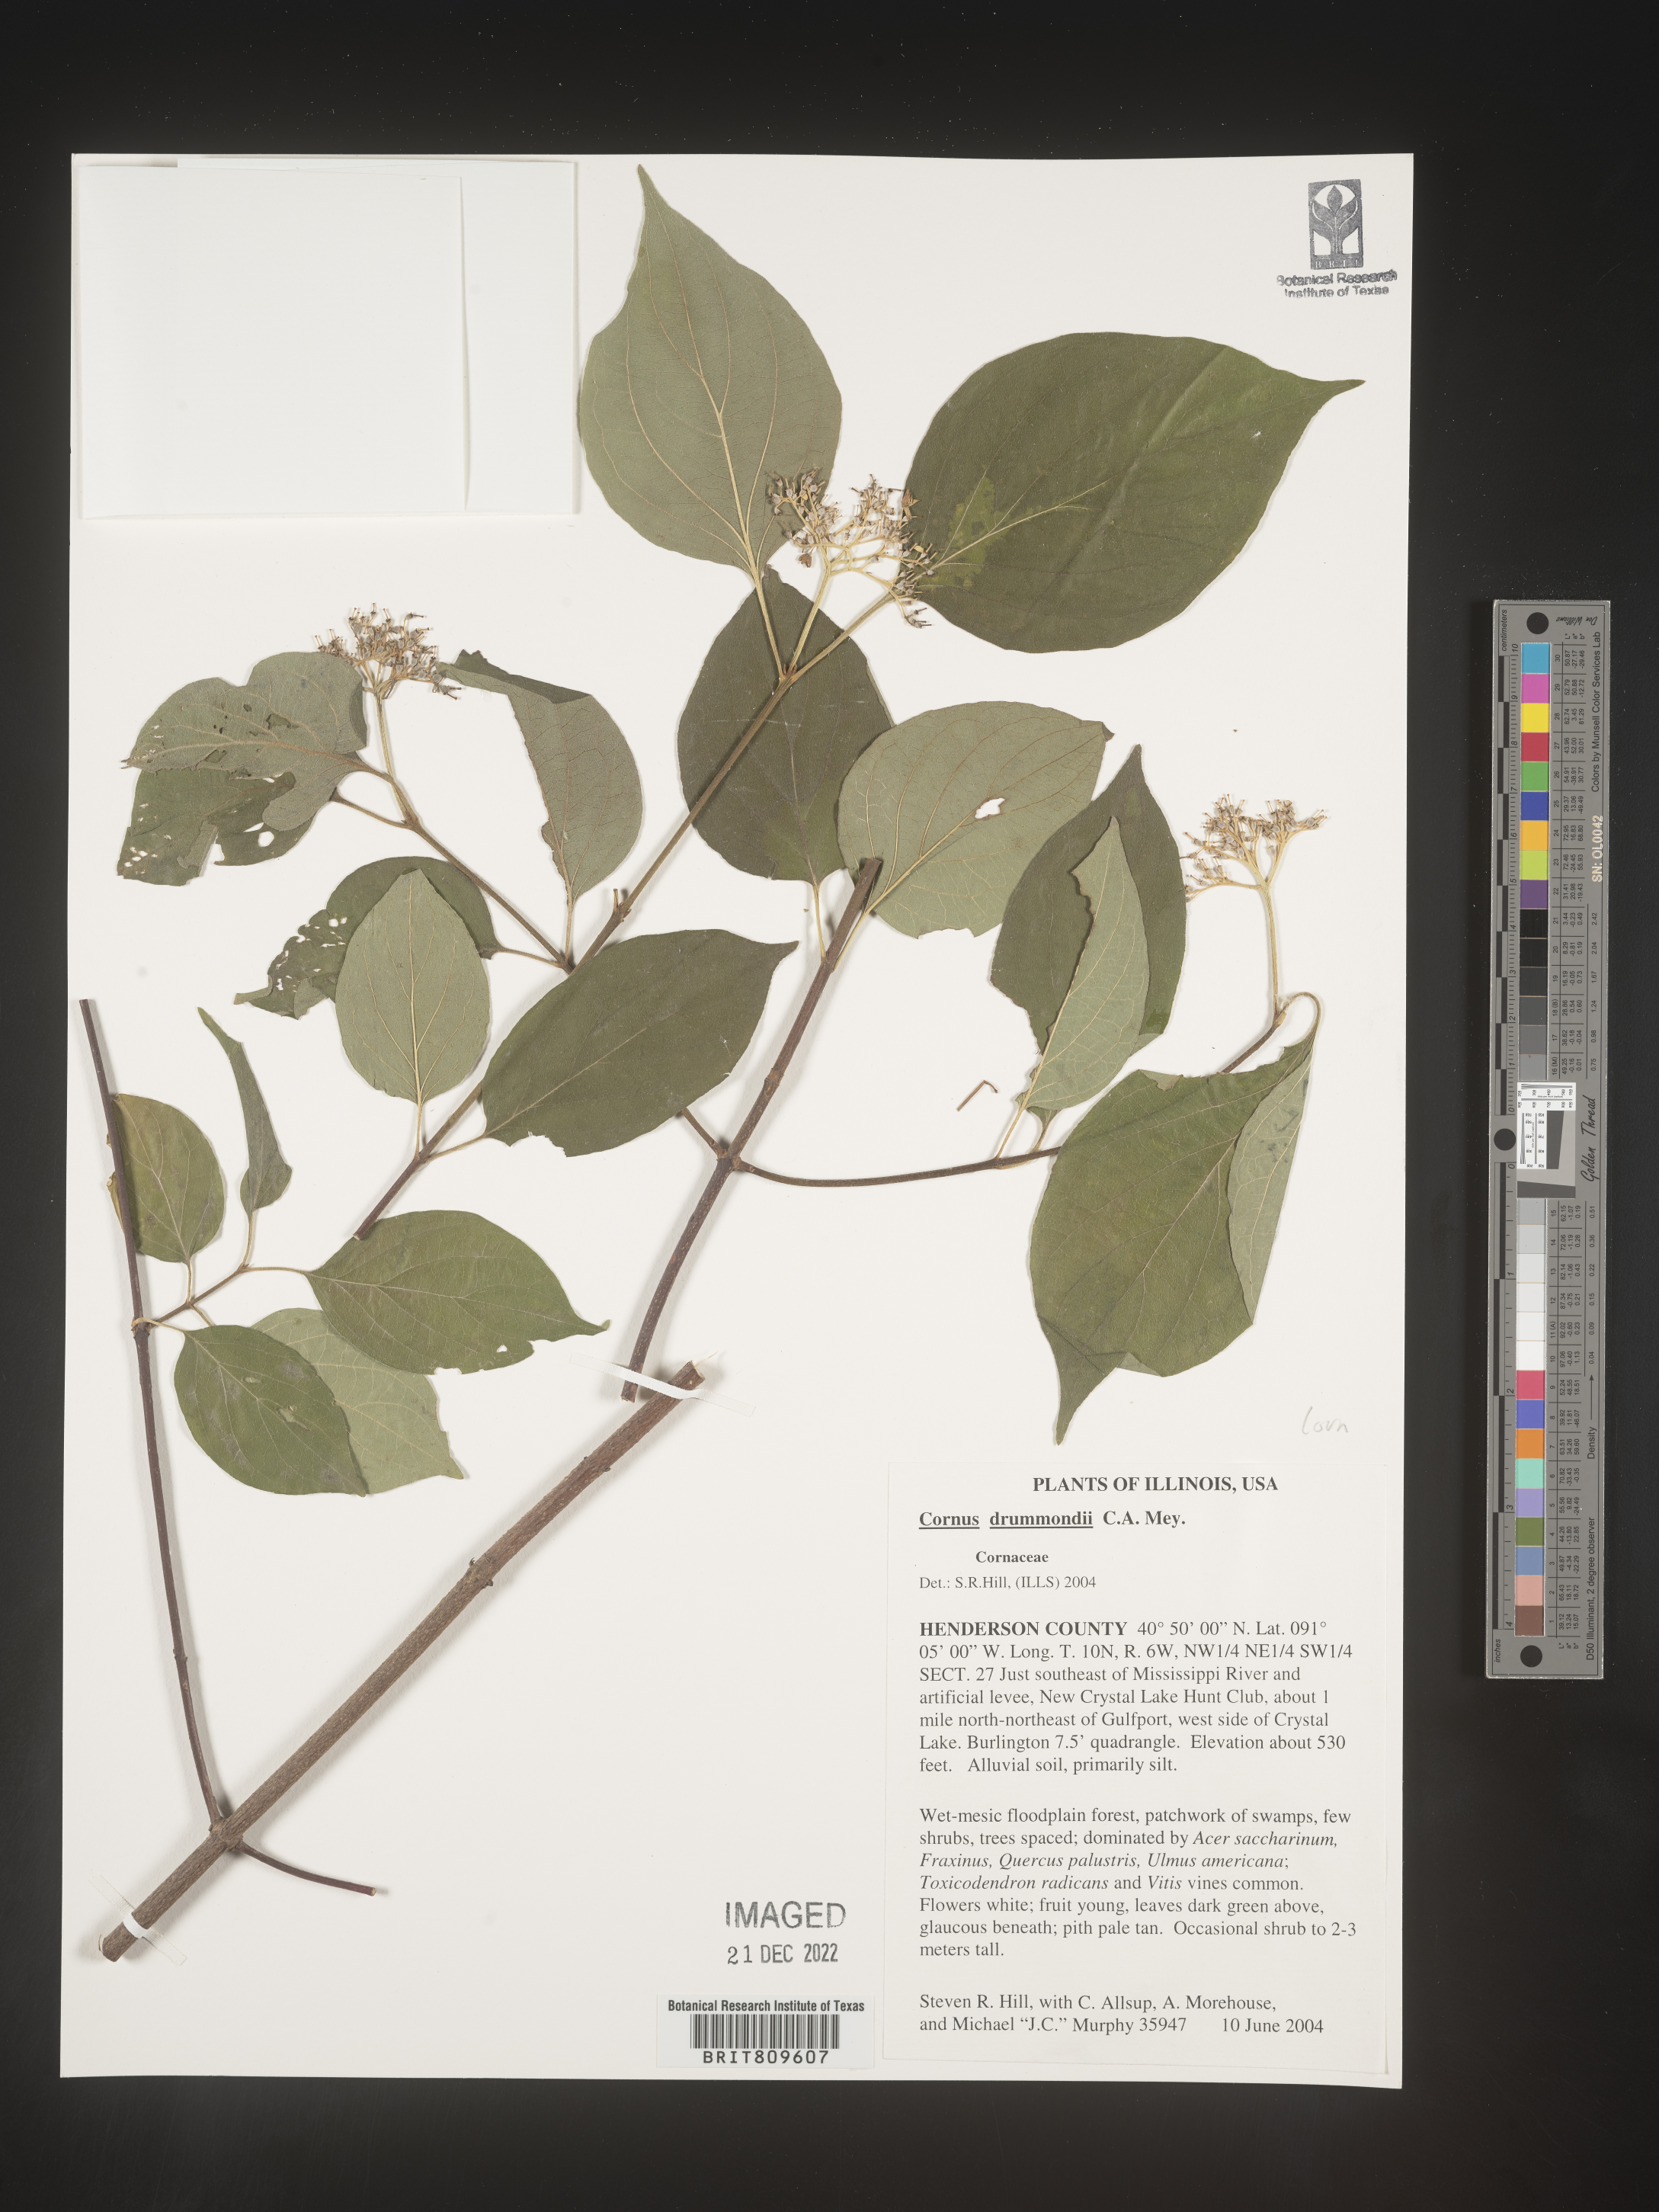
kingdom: Plantae
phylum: Tracheophyta
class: Magnoliopsida
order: Cornales
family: Cornaceae
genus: Cornus
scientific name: Cornus drummondii
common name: Rough-leaf dogwood
